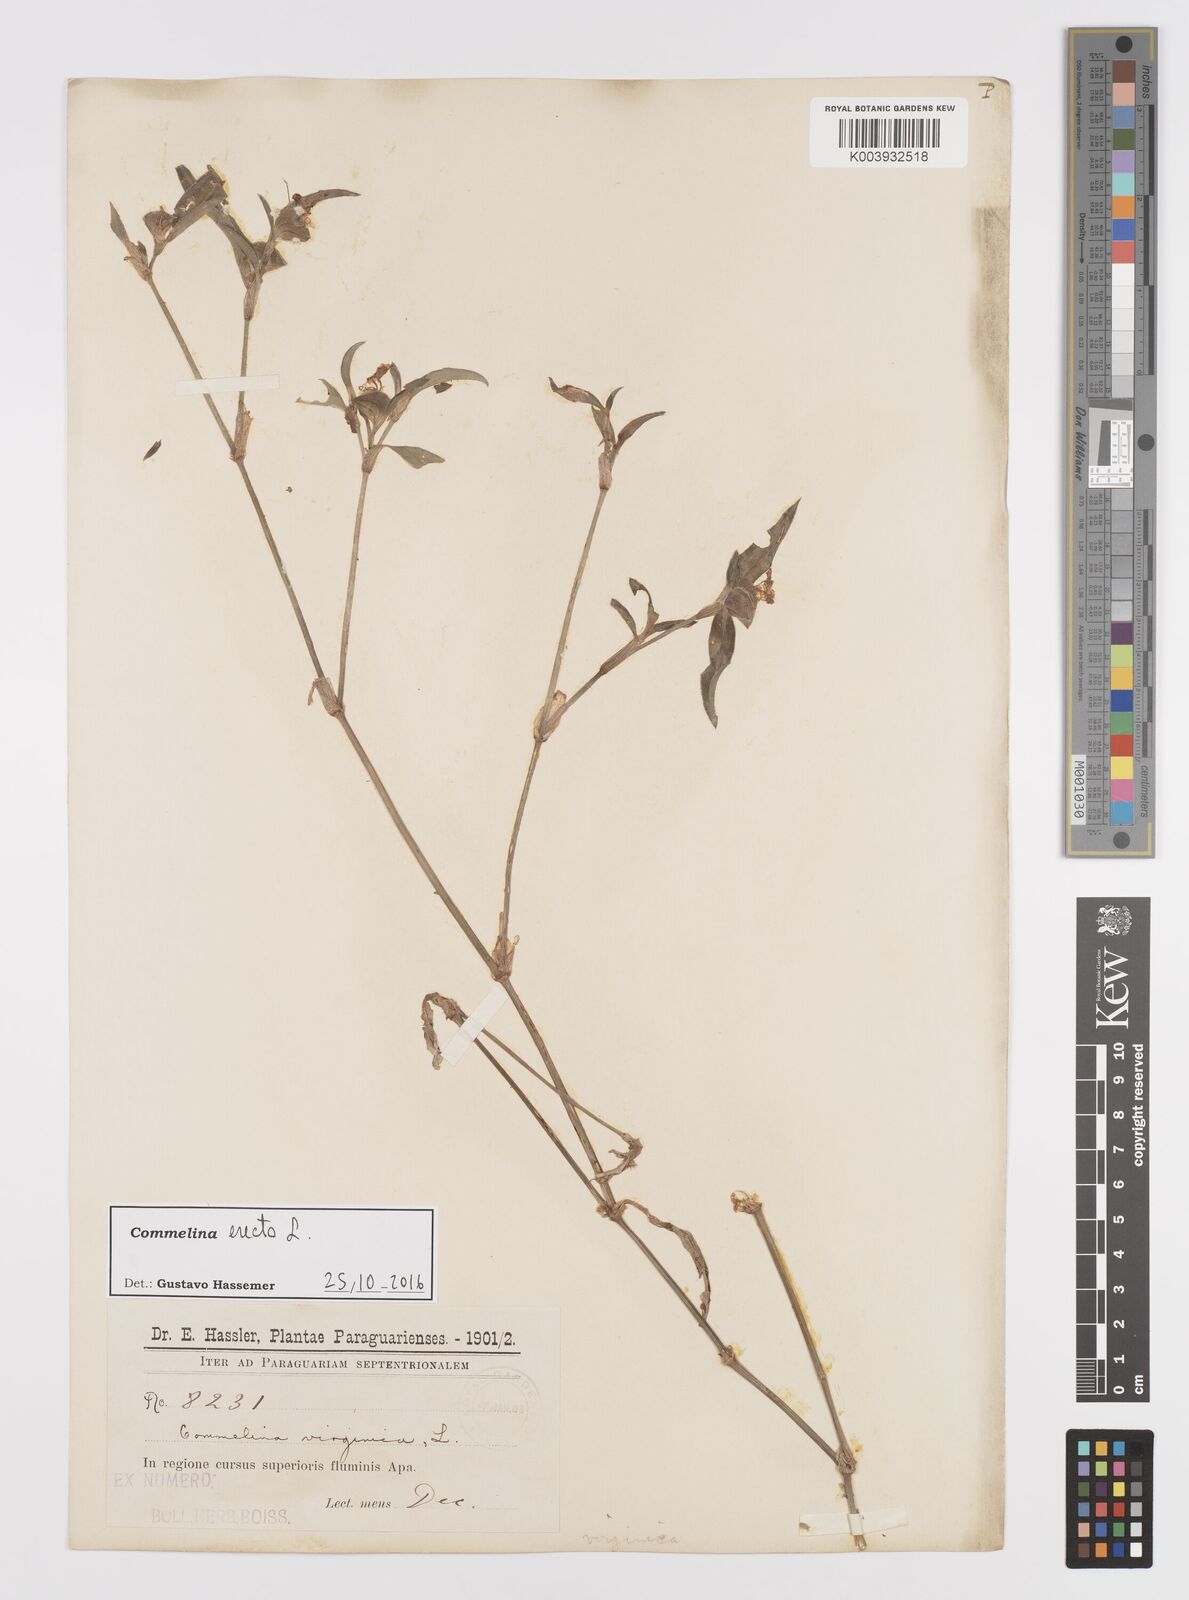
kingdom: Plantae
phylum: Tracheophyta
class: Liliopsida
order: Commelinales
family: Commelinaceae
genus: Commelina
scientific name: Commelina erecta
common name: Blousel blommetjie
